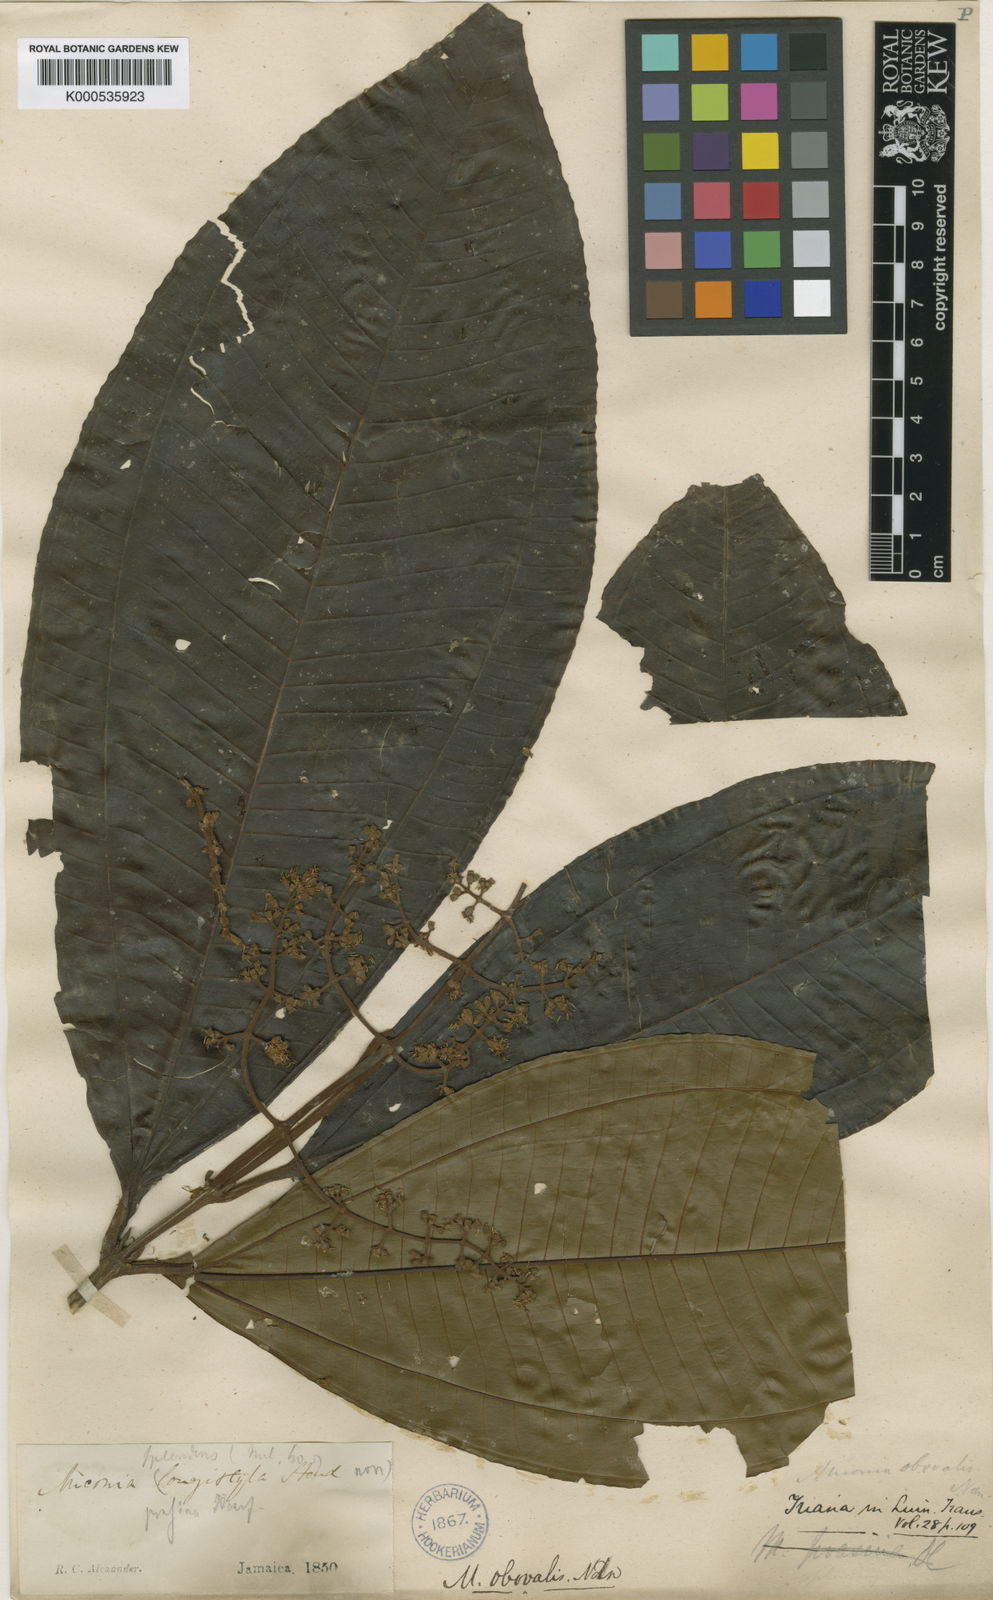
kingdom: Plantae
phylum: Tracheophyta
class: Magnoliopsida
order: Myrtales
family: Melastomataceae
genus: Miconia
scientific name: Miconia splendens
